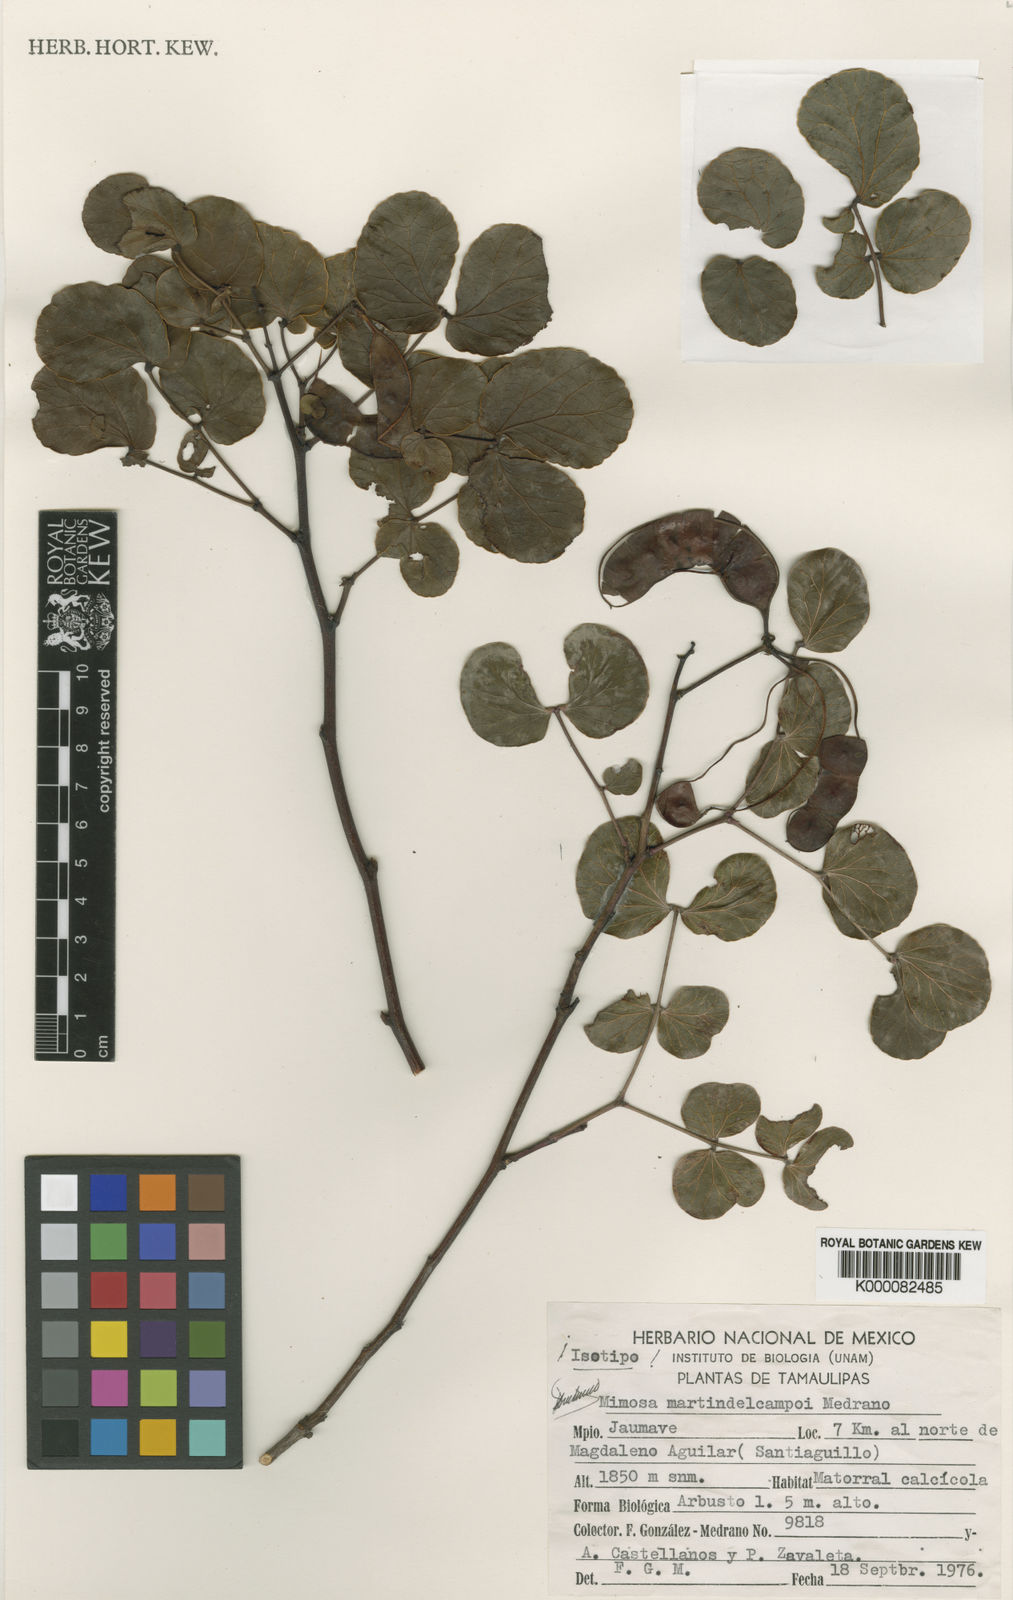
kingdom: Plantae
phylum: Tracheophyta
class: Magnoliopsida
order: Fabales
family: Fabaceae
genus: Mimosa
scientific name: Mimosa martin-delcampoi
